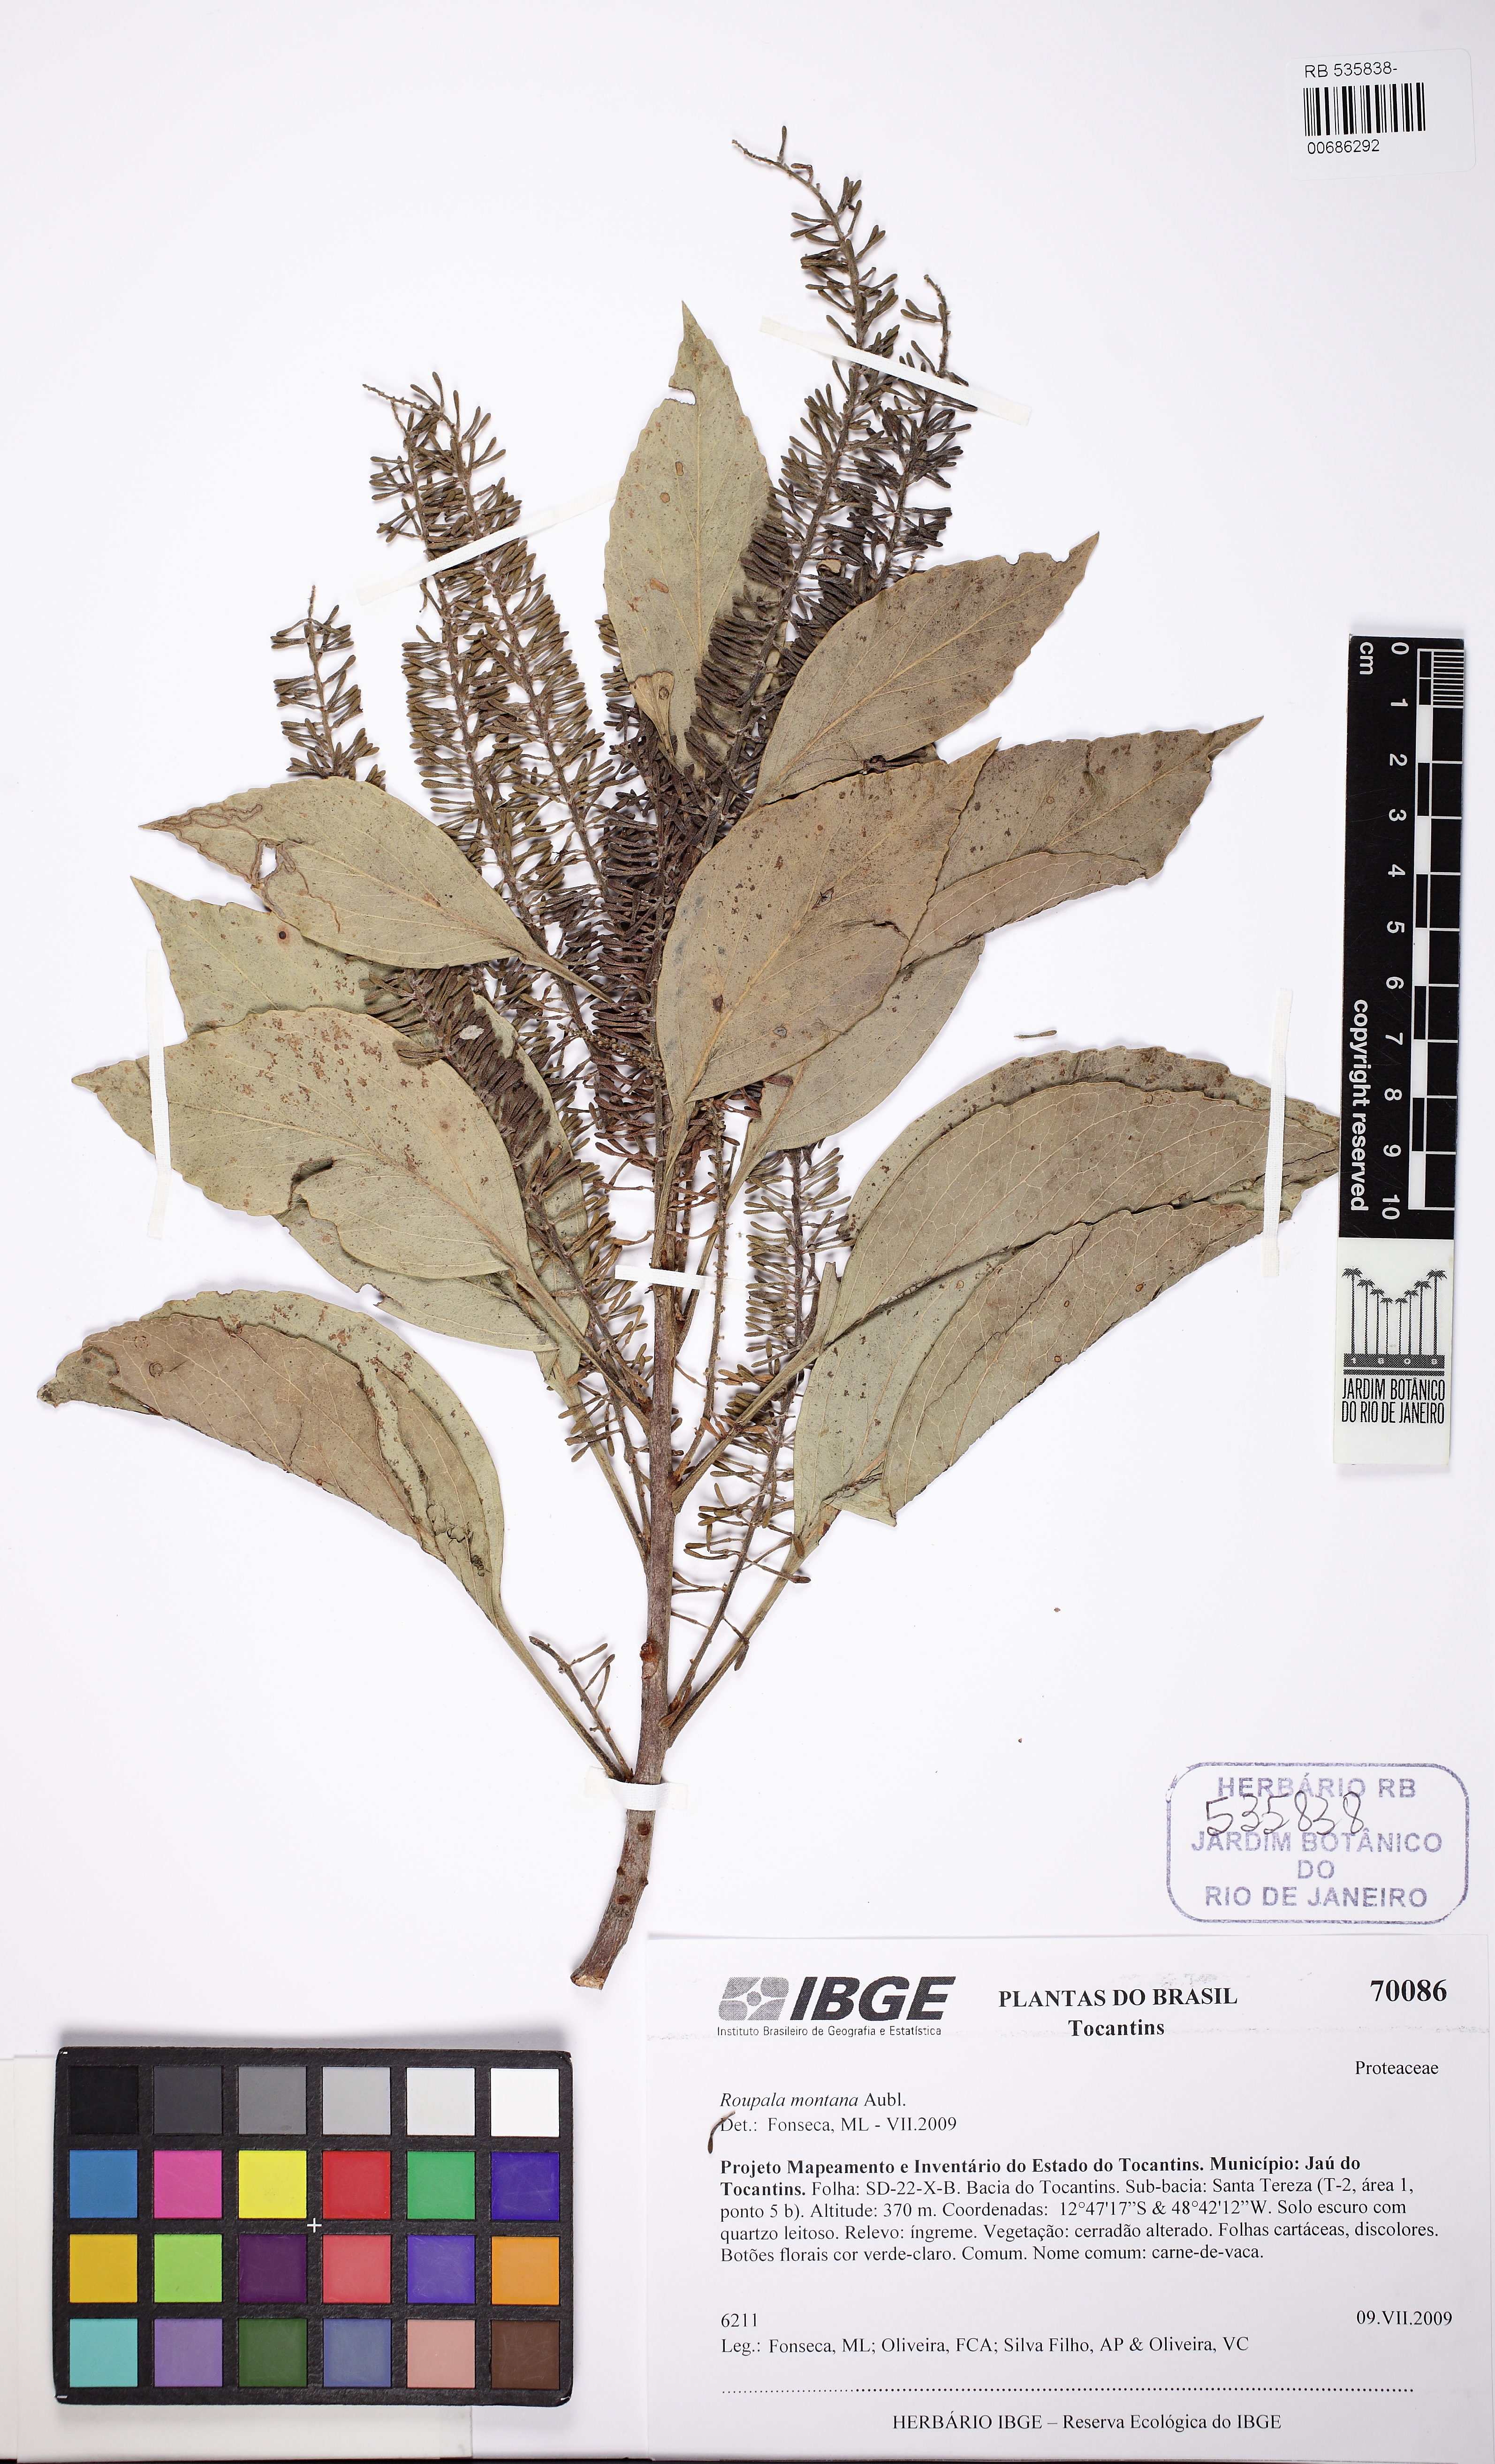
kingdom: Plantae
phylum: Tracheophyta
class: Magnoliopsida
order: Proteales
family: Proteaceae
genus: Roupala
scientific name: Roupala montana
